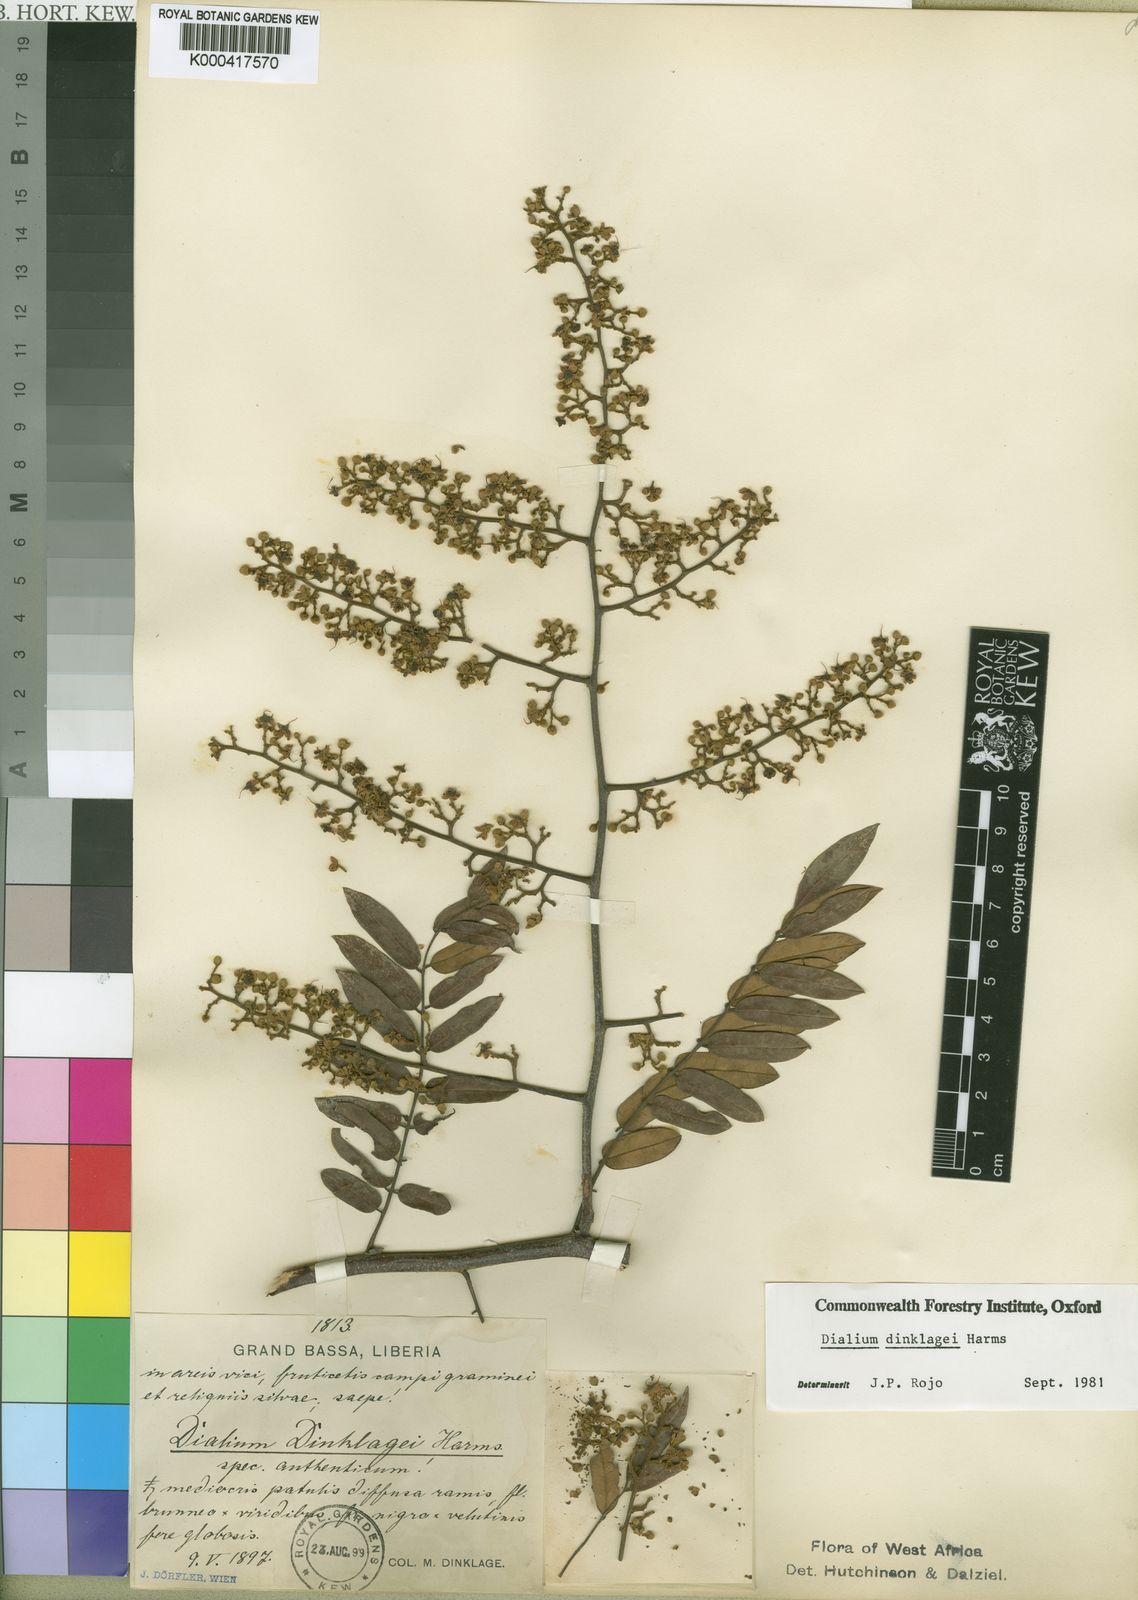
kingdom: Plantae
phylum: Tracheophyta
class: Magnoliopsida
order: Fabales
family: Fabaceae
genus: Dialium
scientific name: Dialium dinklagei
